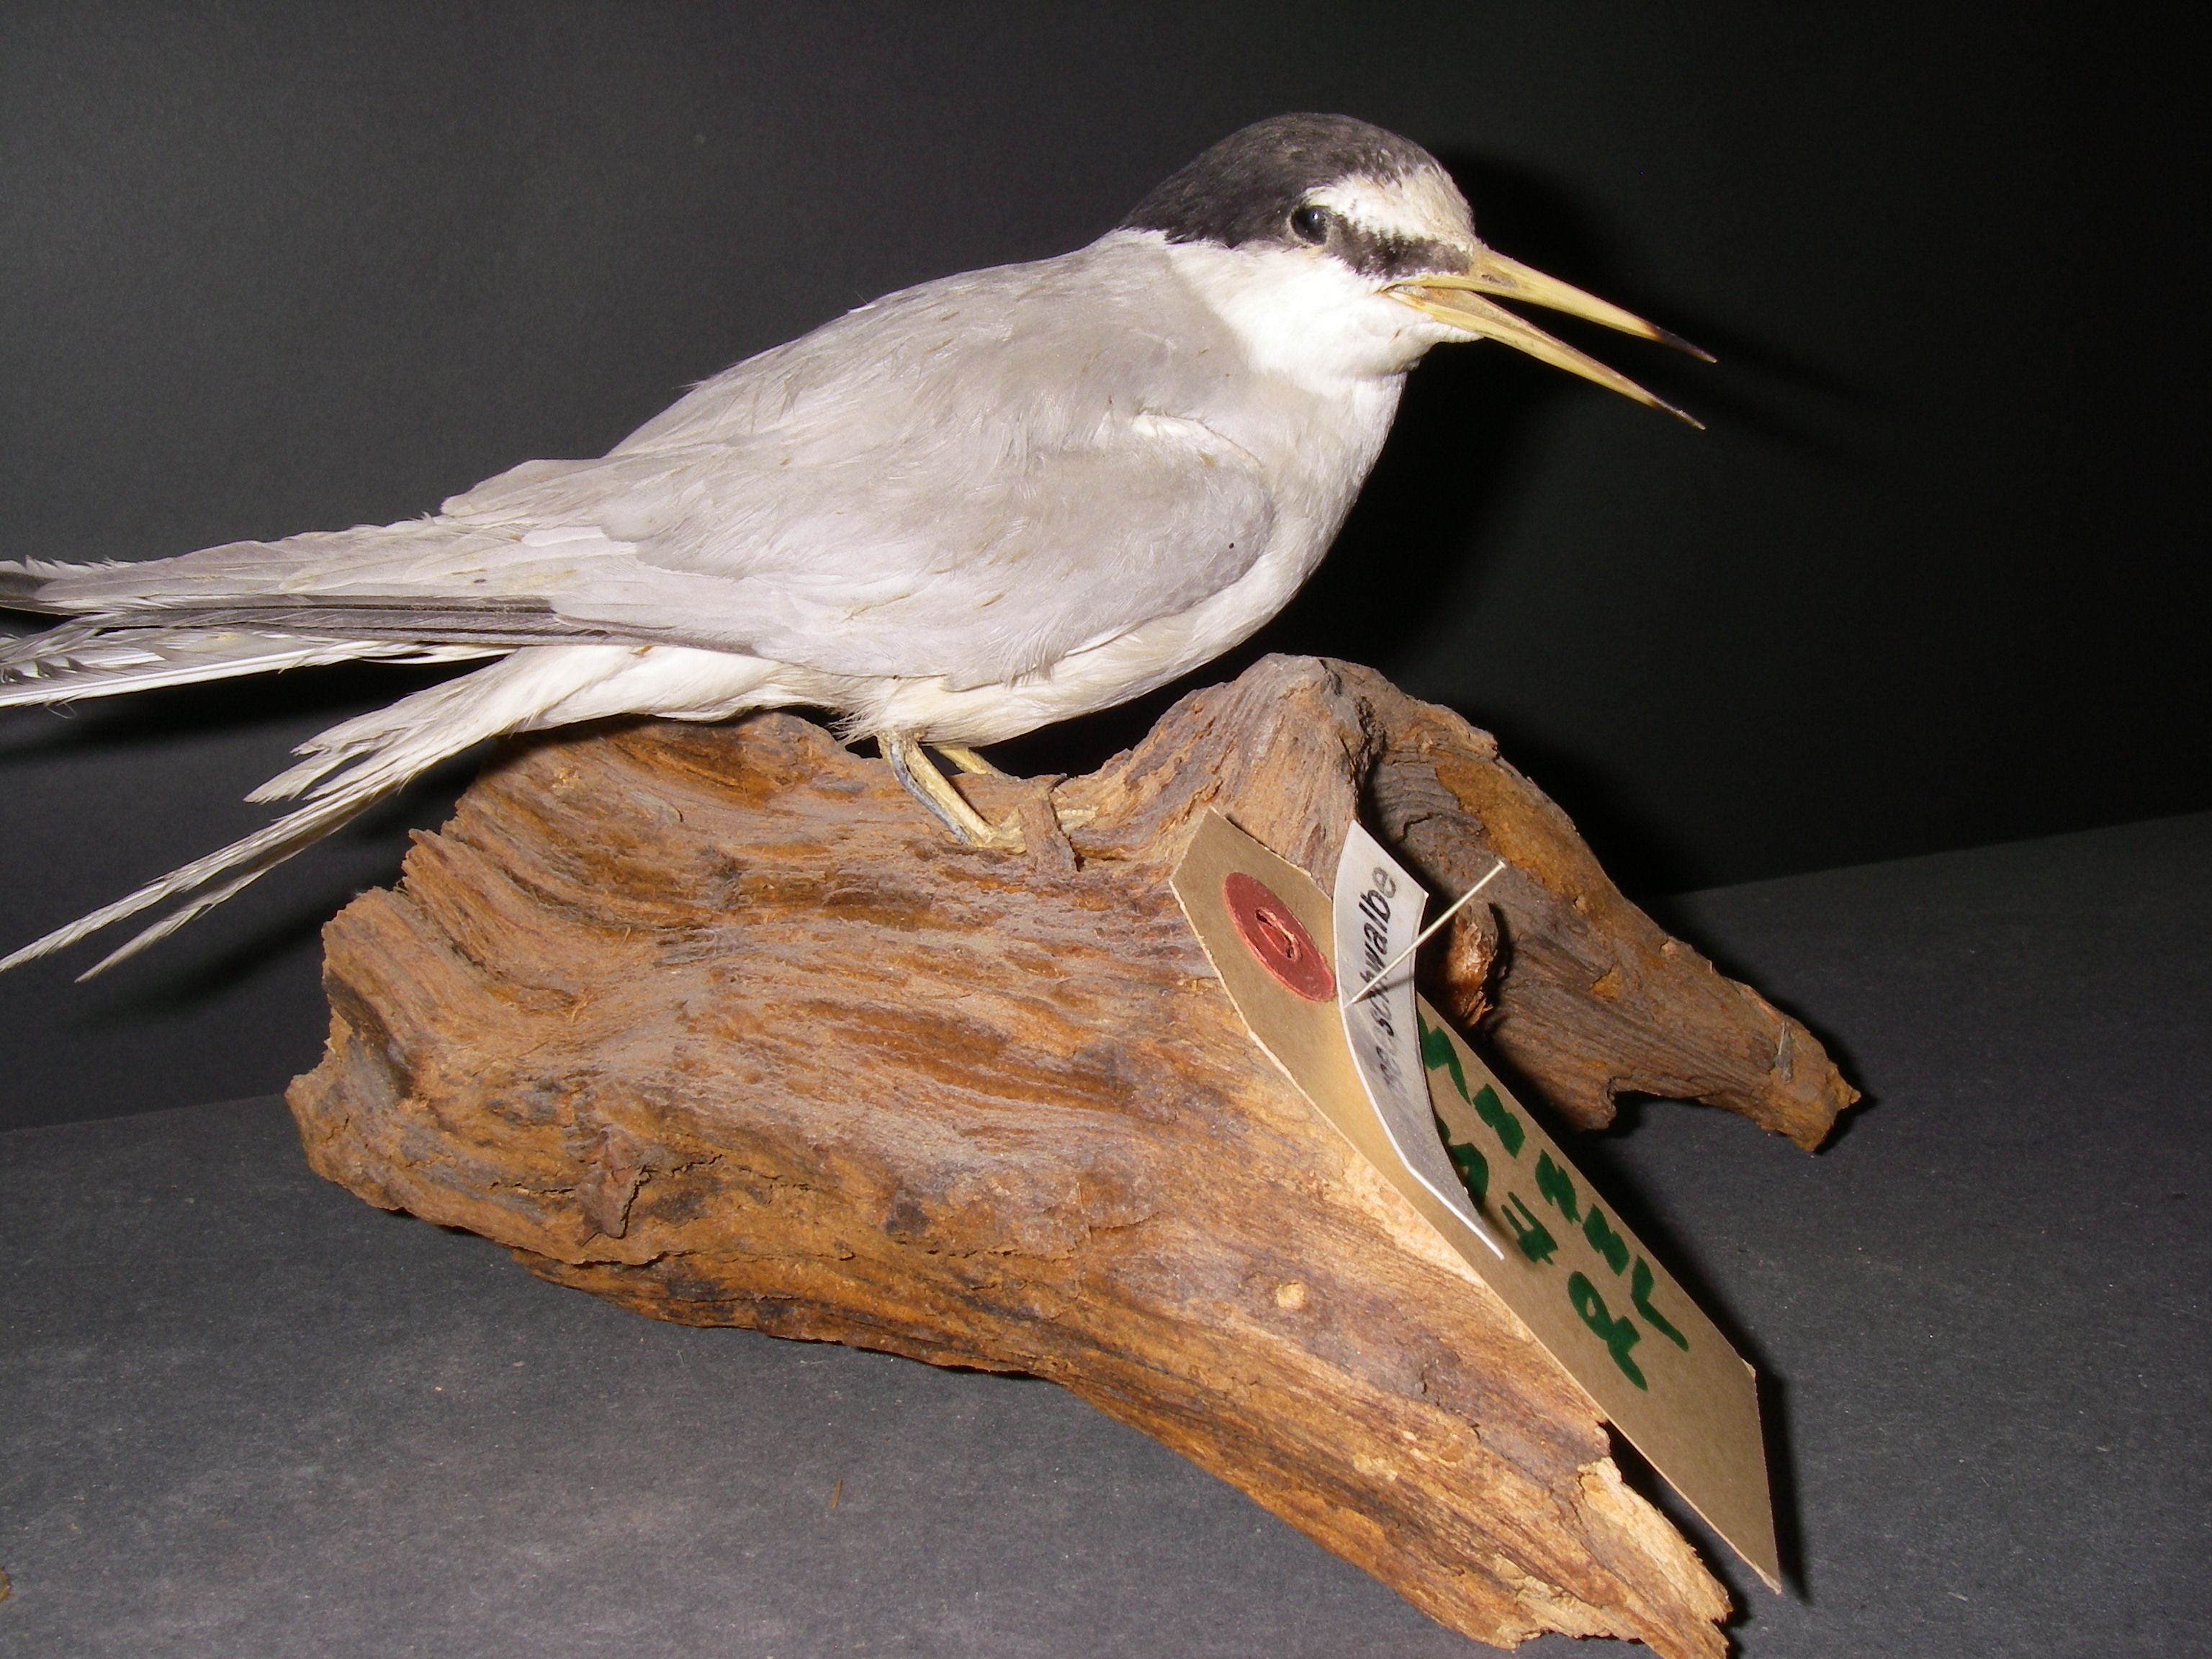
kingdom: Animalia
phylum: Chordata
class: Aves
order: Charadriiformes
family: Laridae
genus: Sternula
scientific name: Sternula albifrons
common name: Little tern
